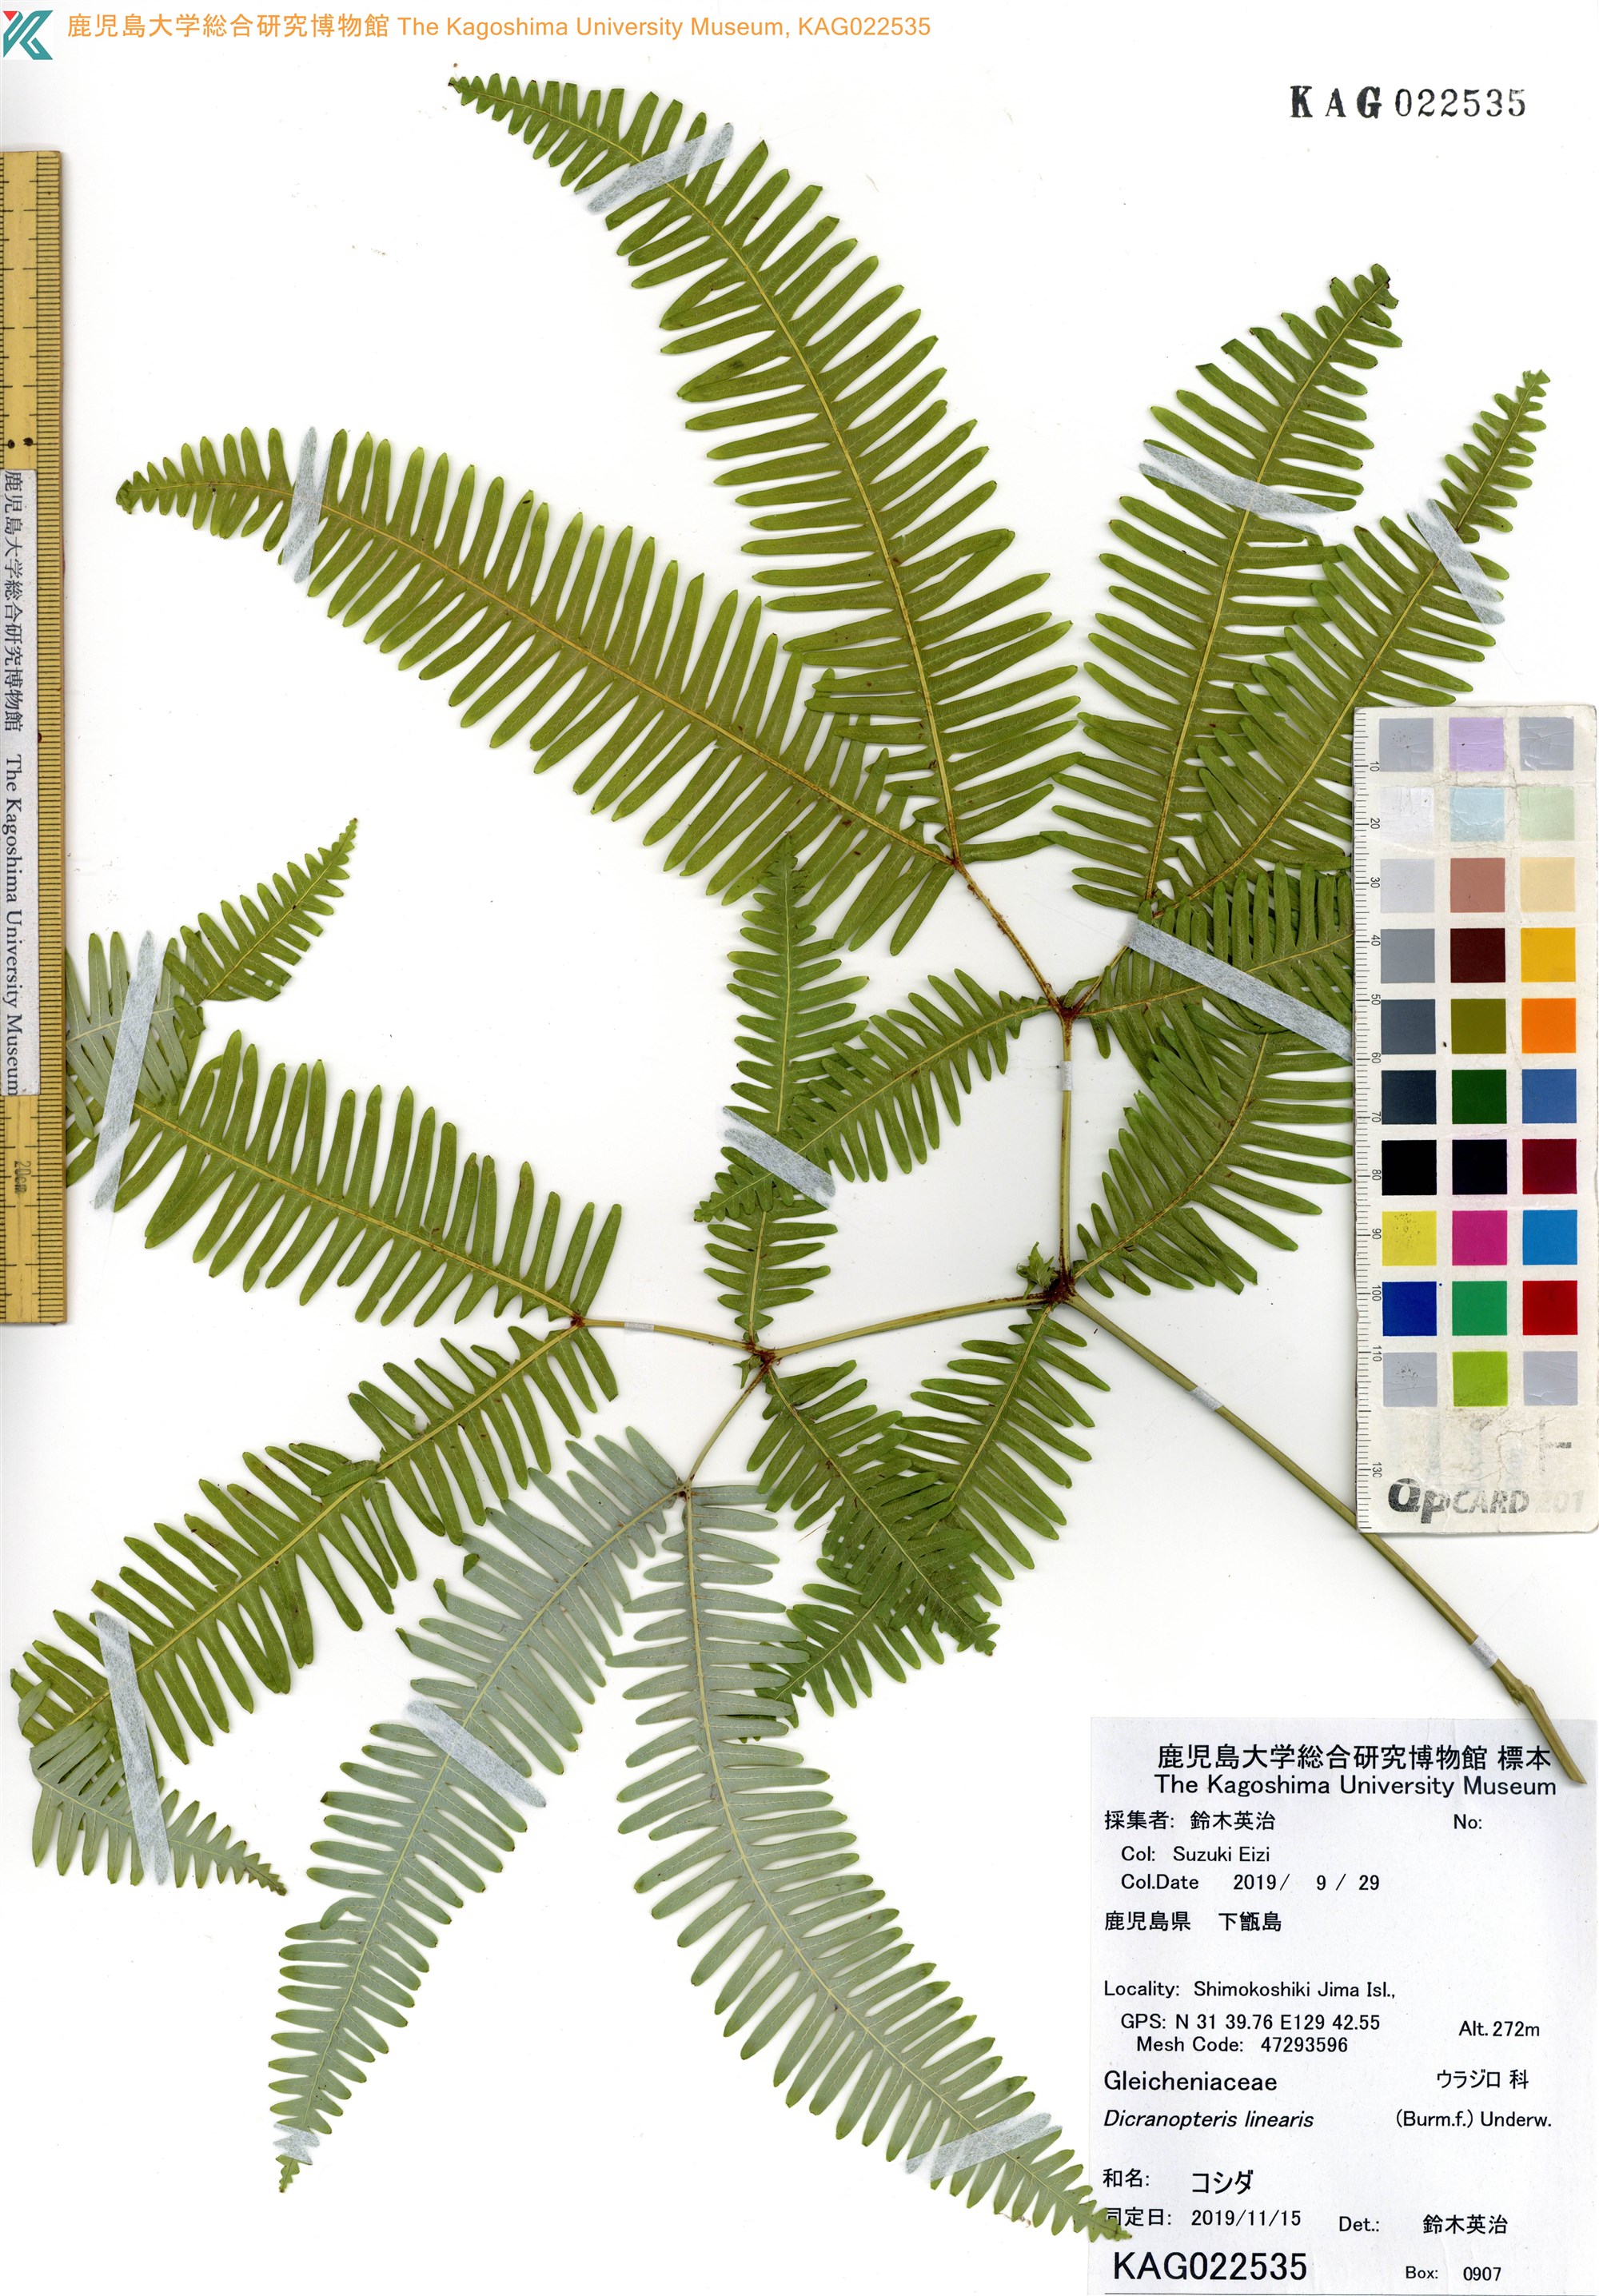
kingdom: Plantae
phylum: Tracheophyta
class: Polypodiopsida
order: Gleicheniales
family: Gleicheniaceae
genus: Dicranopteris
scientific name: Dicranopteris pedata
